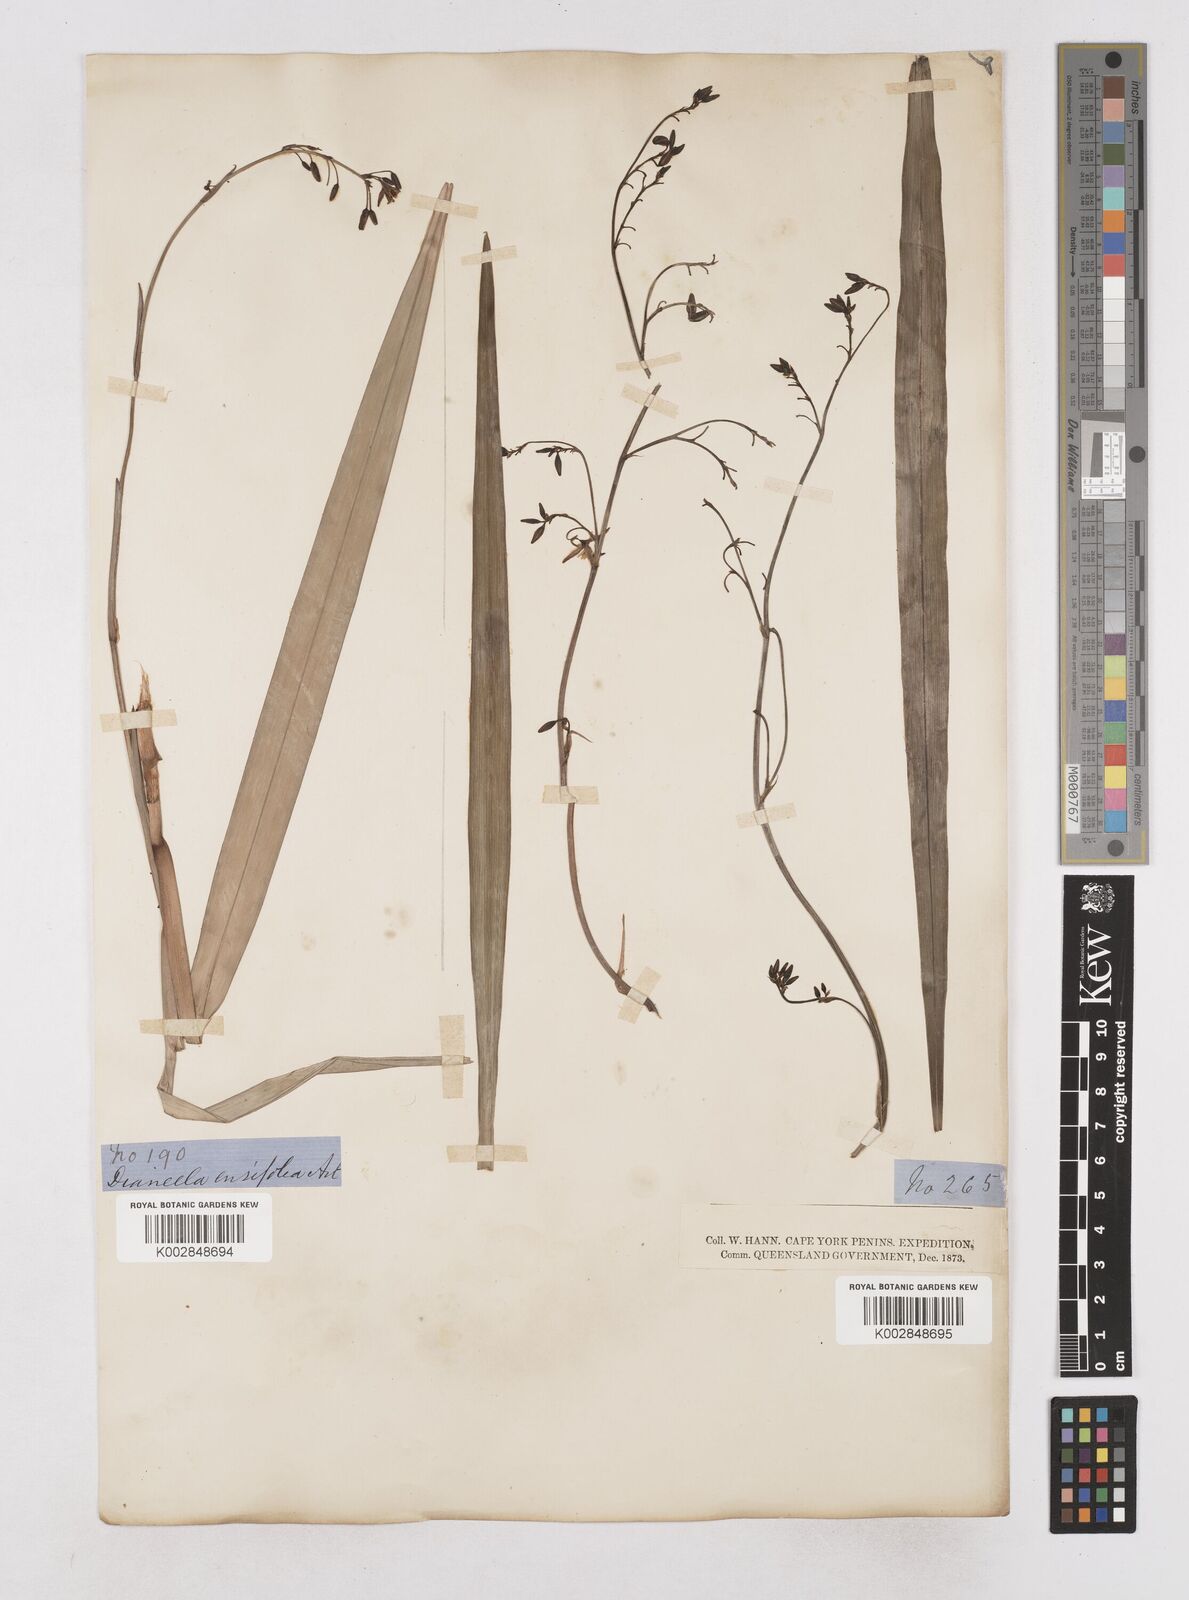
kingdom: Plantae
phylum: Tracheophyta
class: Liliopsida
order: Asparagales
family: Asphodelaceae
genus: Dianella
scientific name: Dianella ensifolia
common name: New zealand lilyplant
